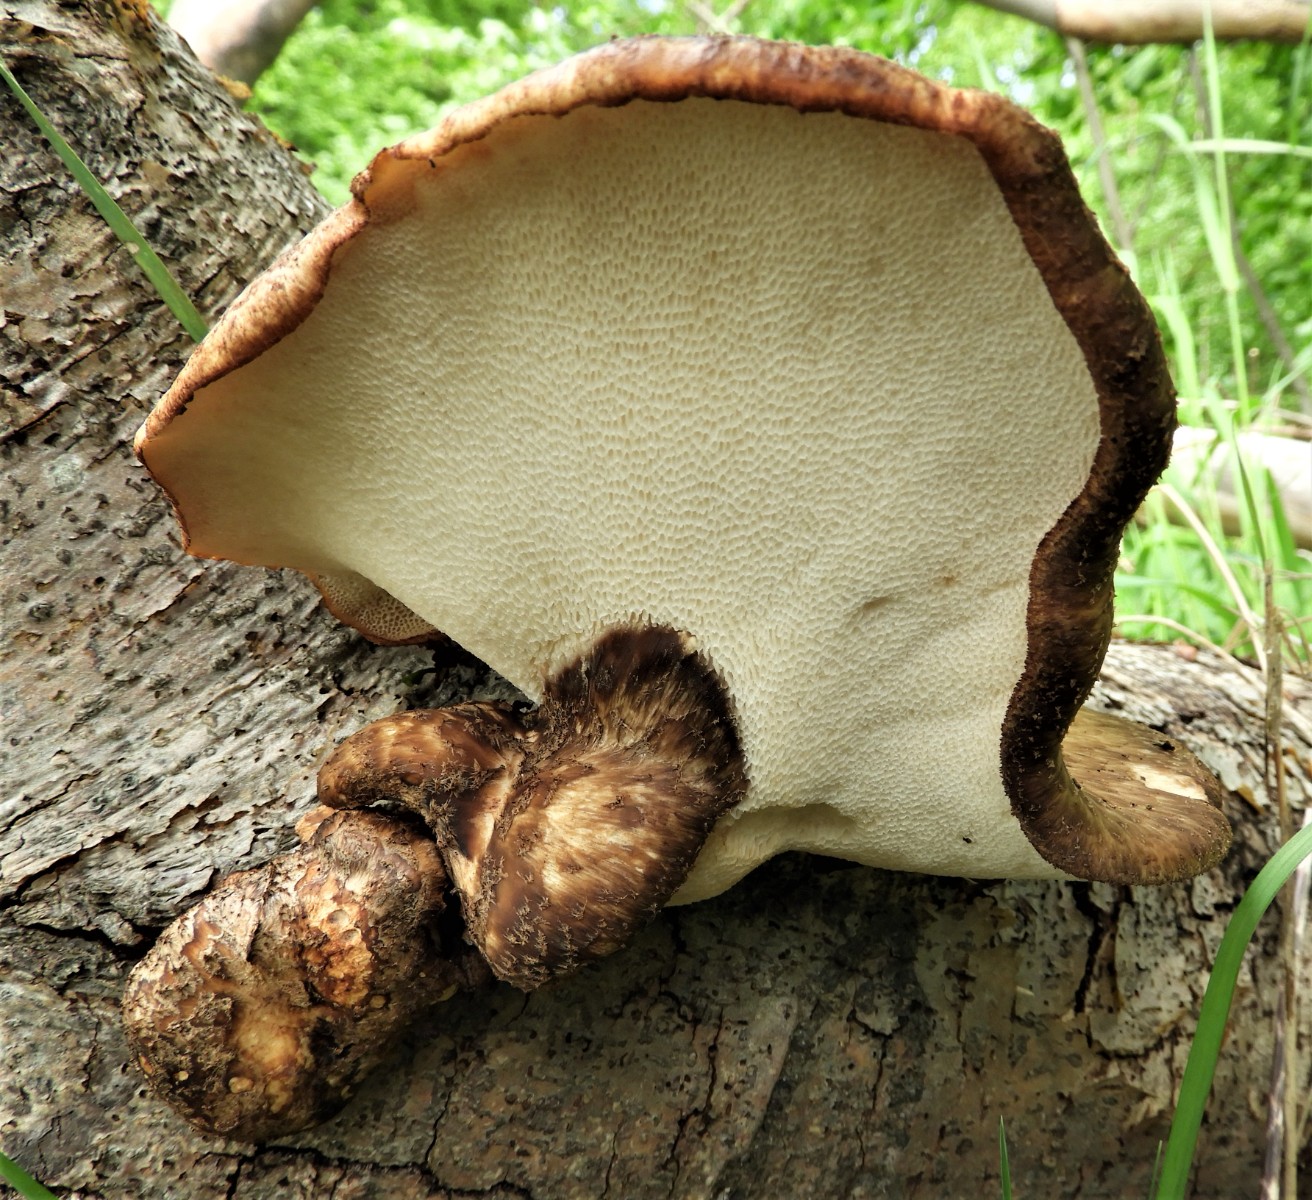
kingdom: Fungi
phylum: Basidiomycota
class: Agaricomycetes
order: Polyporales
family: Polyporaceae
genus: Cerioporus
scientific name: Cerioporus squamosus
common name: skællet stilkporesvamp
